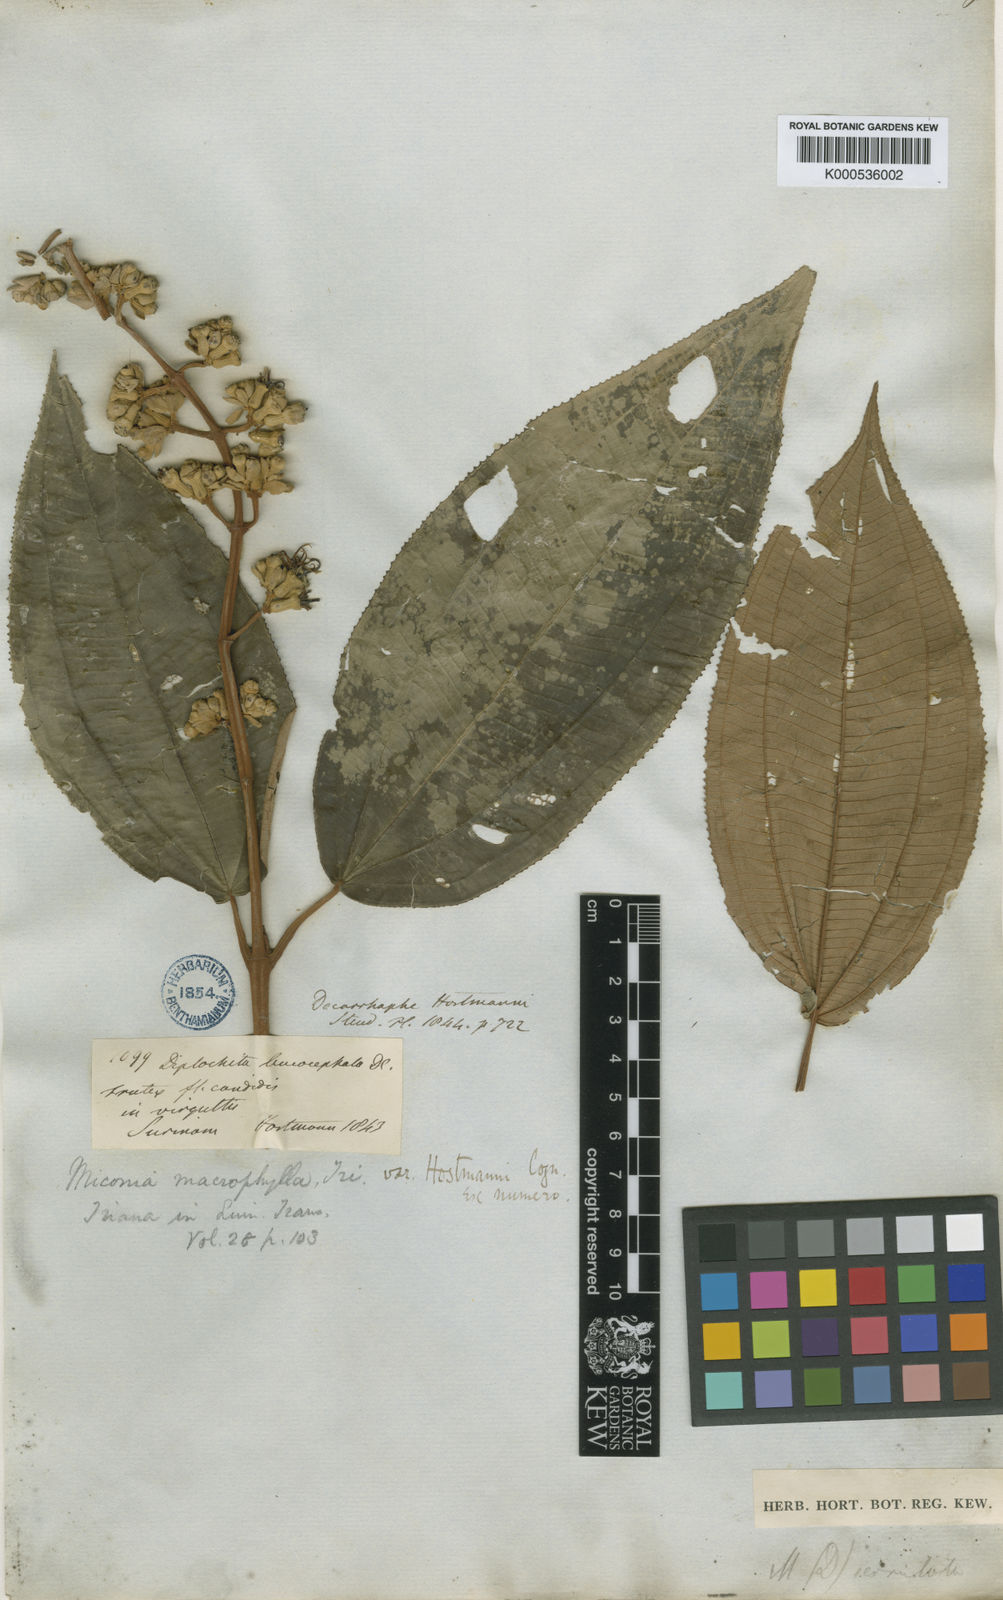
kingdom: Plantae
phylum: Tracheophyta
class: Magnoliopsida
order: Myrtales
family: Melastomataceae
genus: Miconia
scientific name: Miconia serrulata
